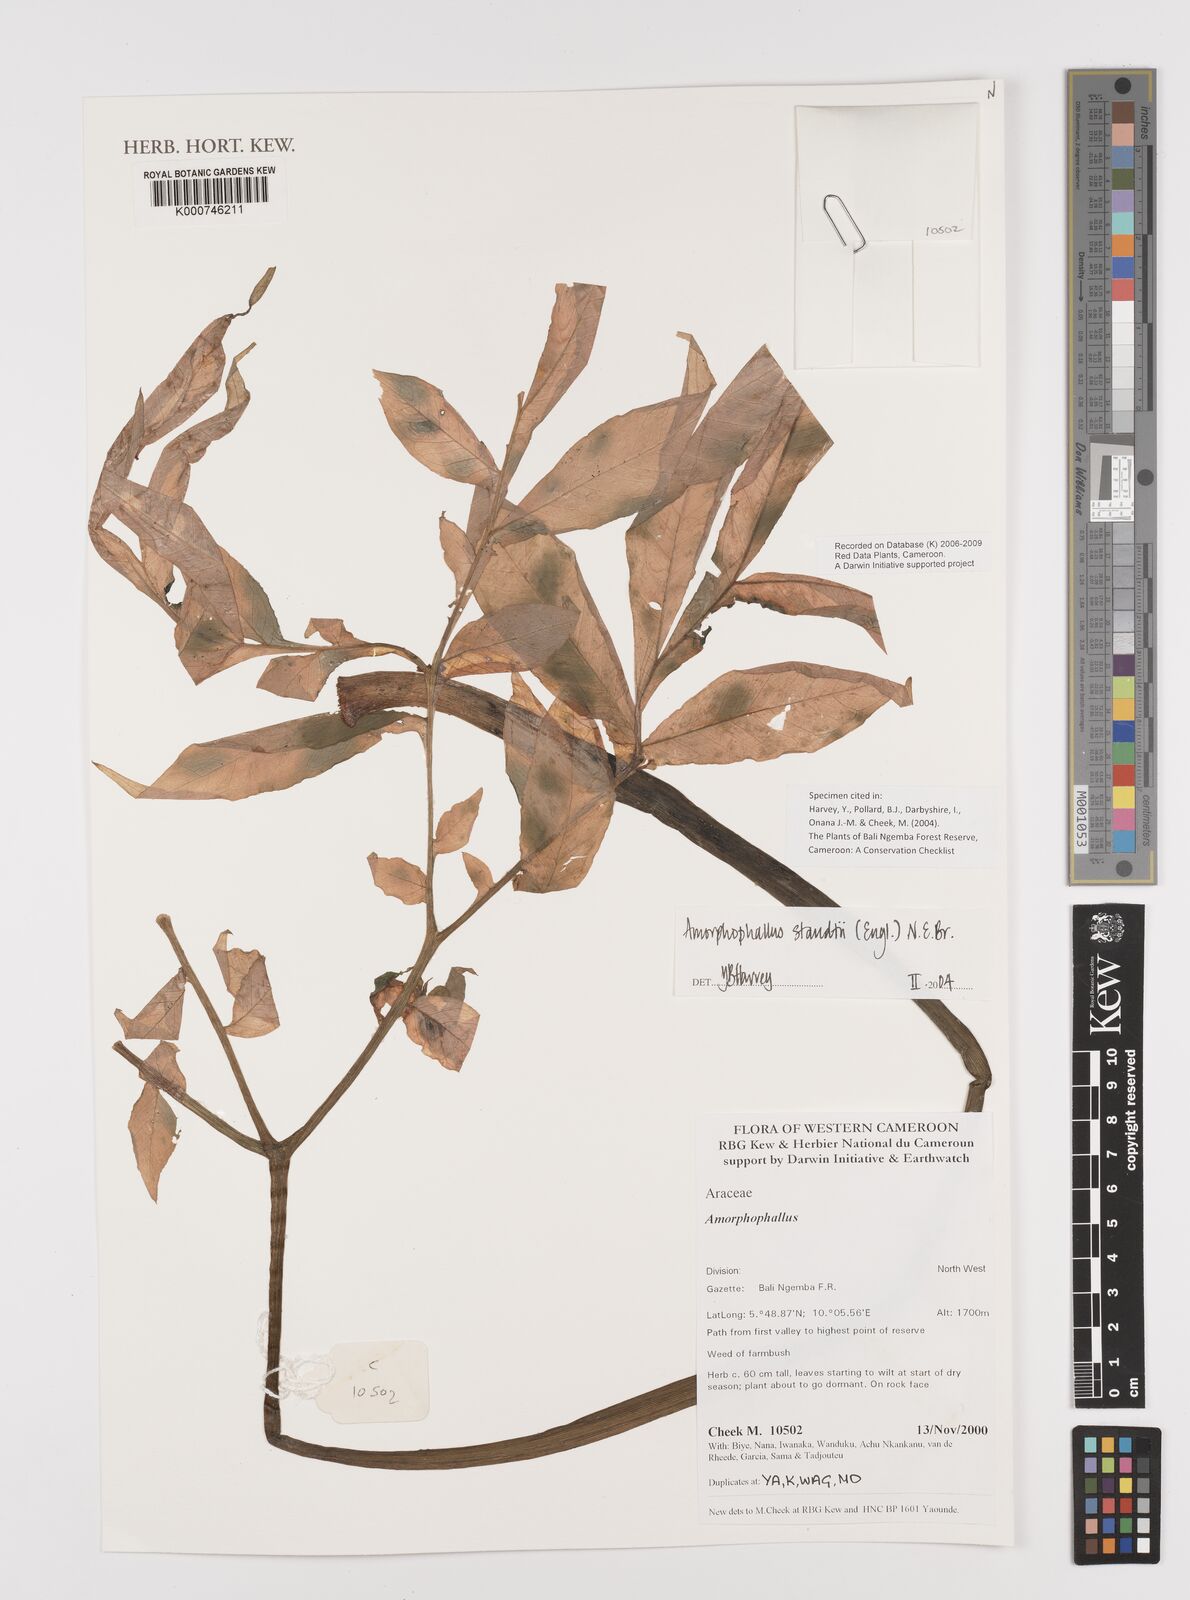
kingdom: Plantae
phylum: Tracheophyta
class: Liliopsida
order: Alismatales
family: Araceae
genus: Amorphophallus
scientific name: Amorphophallus staudtii
